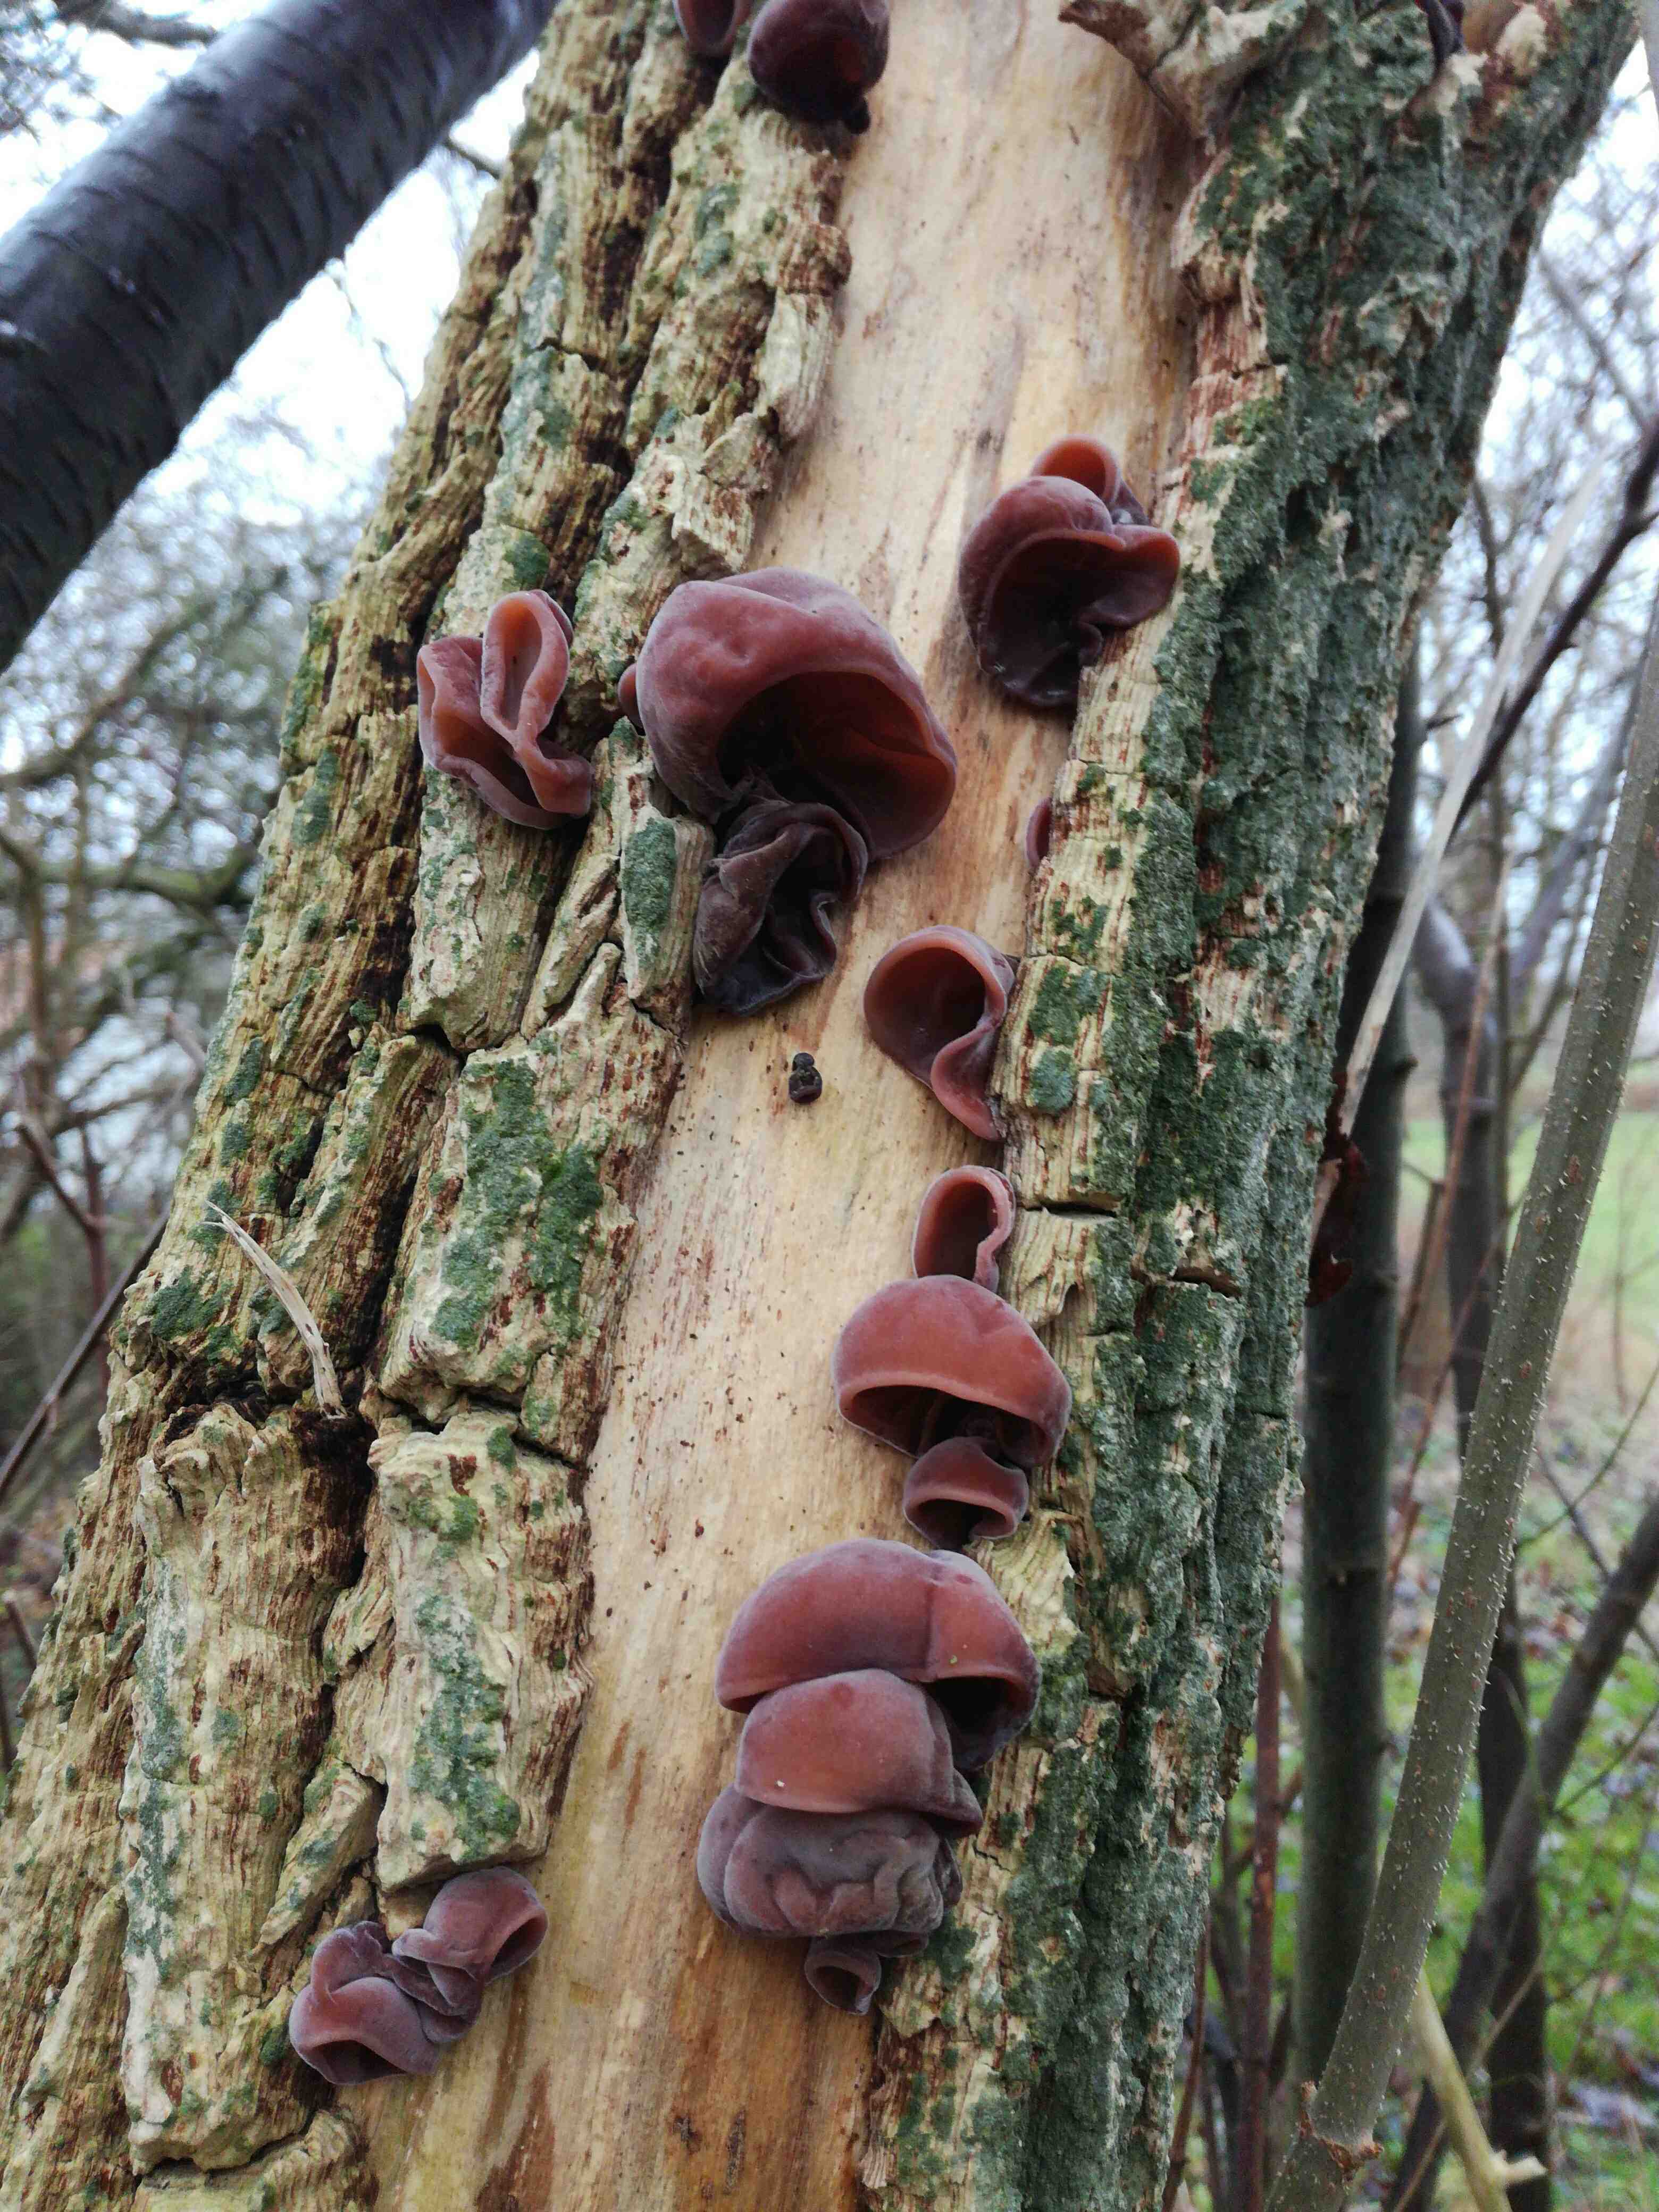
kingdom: Fungi
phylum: Basidiomycota
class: Agaricomycetes
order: Auriculariales
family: Auriculariaceae
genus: Auricularia
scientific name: Auricularia auricula-judae
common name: almindelig judasøre
